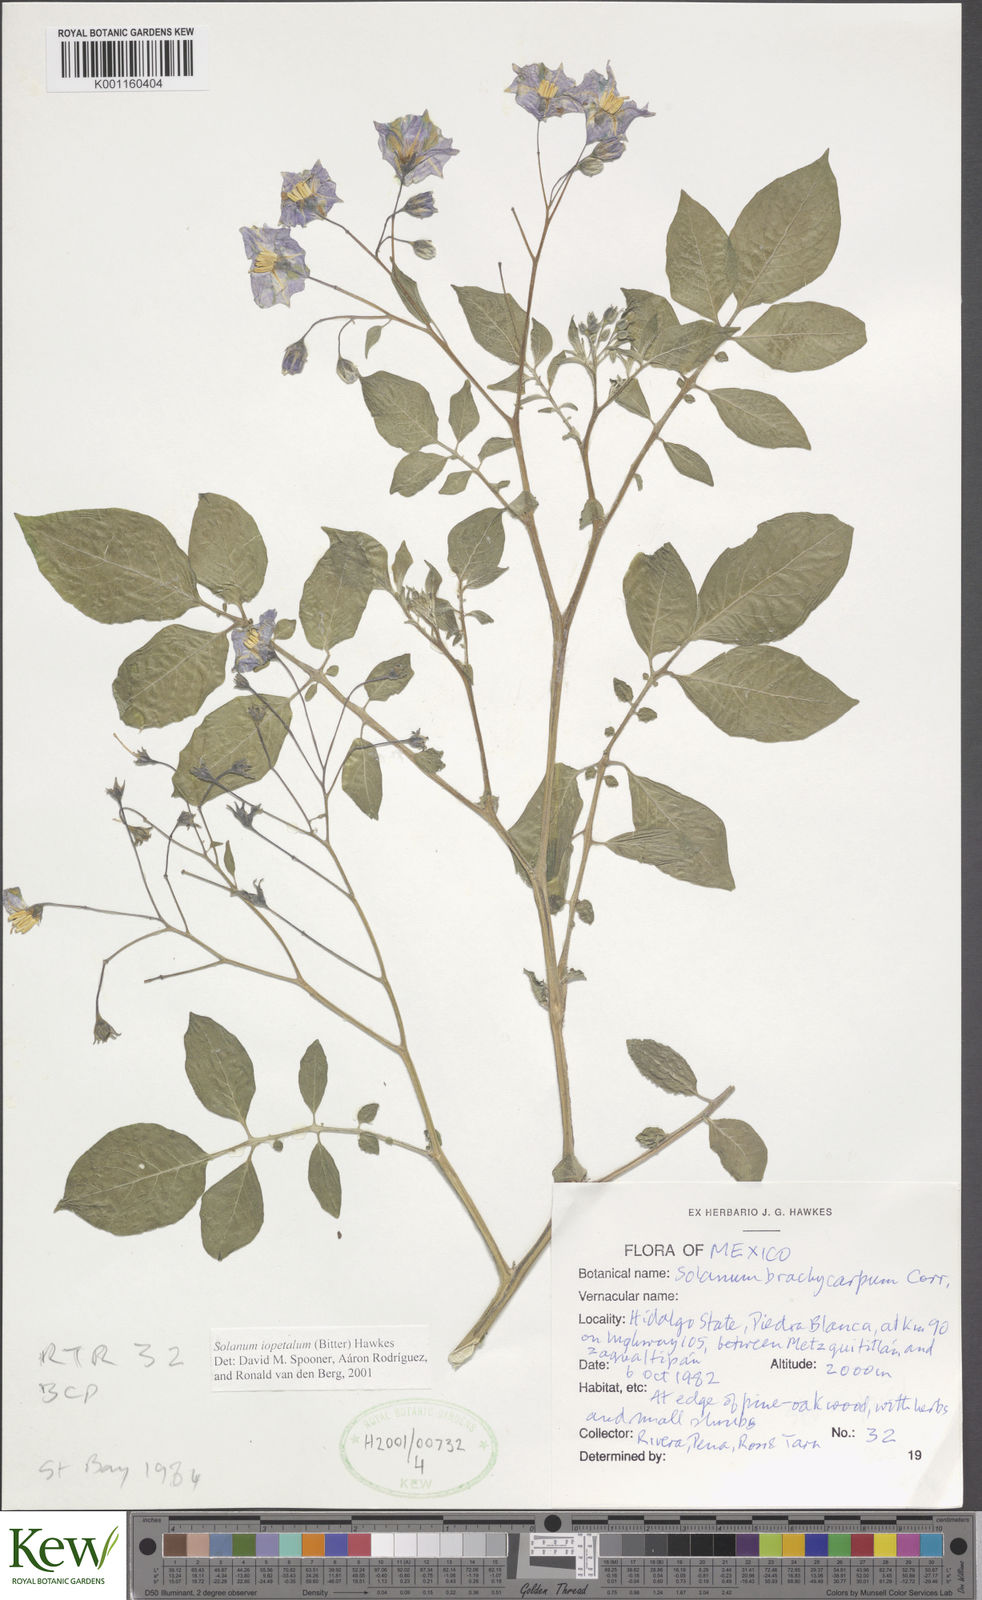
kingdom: Plantae
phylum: Tracheophyta
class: Magnoliopsida
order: Solanales
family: Solanaceae
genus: Solanum
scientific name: Solanum iopetalum
